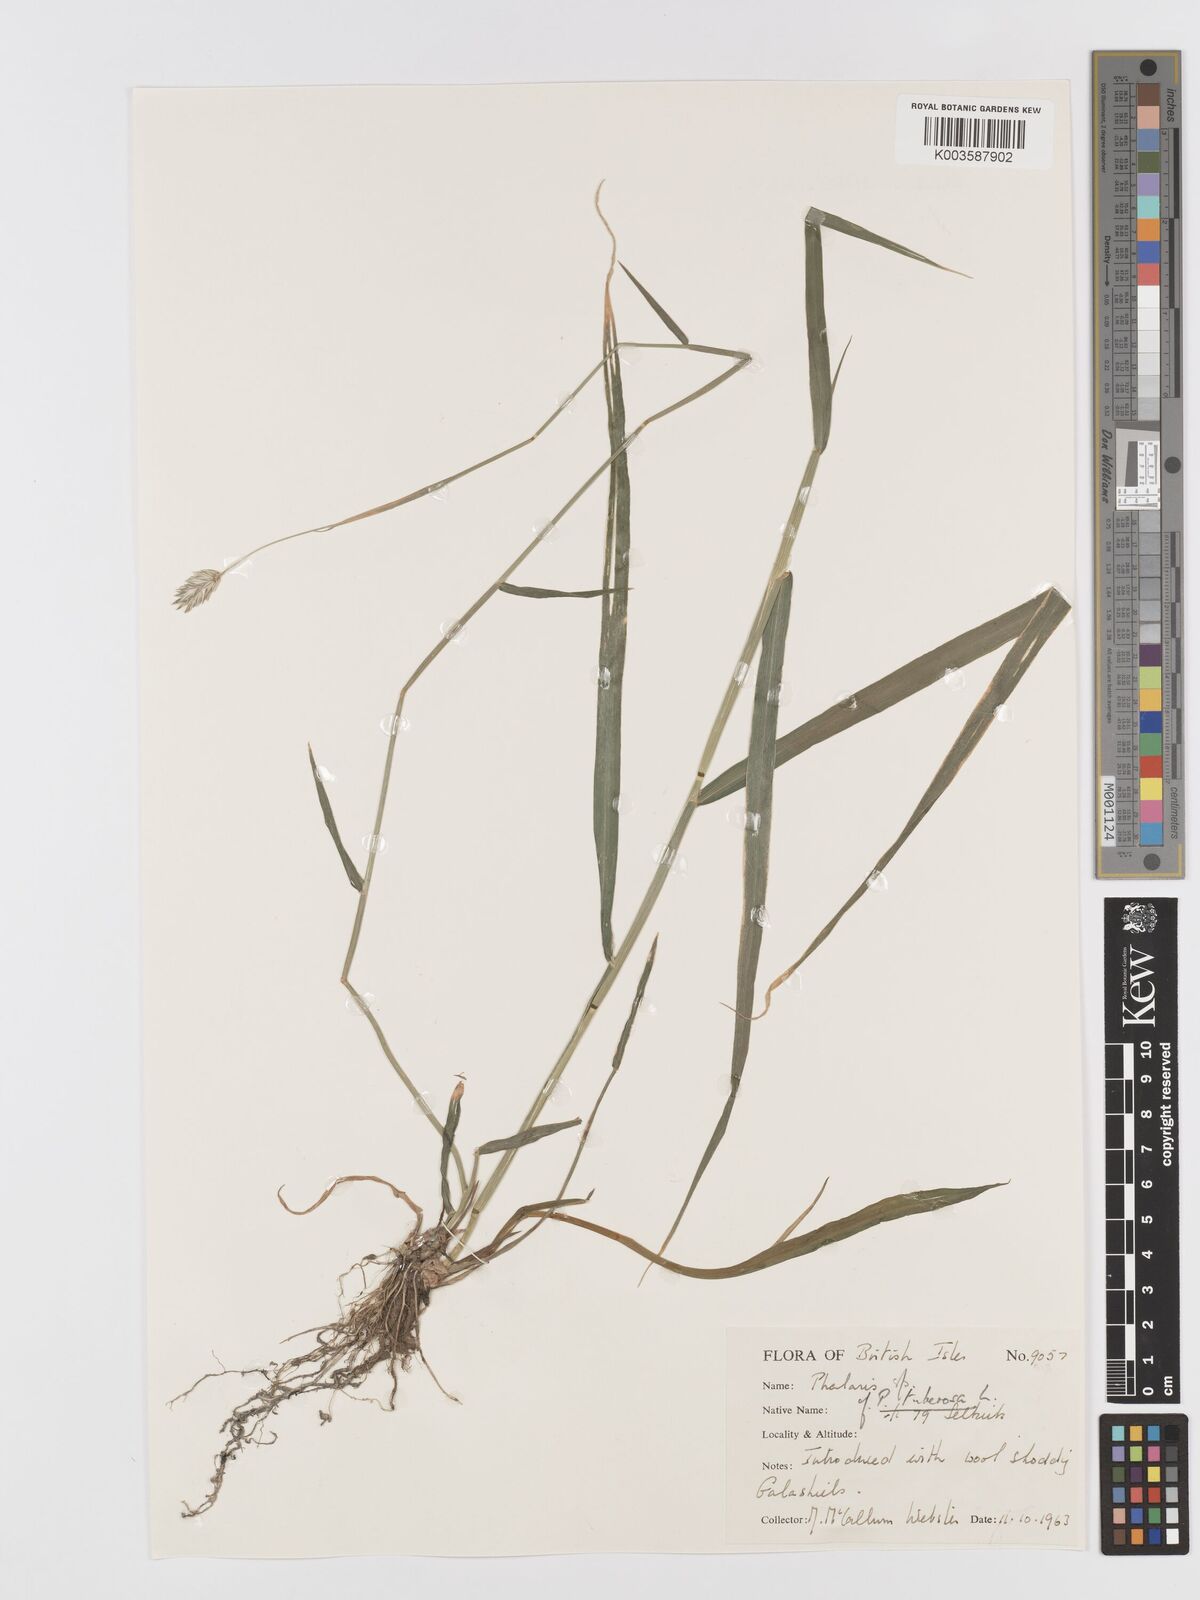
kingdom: Plantae
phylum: Tracheophyta
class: Liliopsida
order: Poales
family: Poaceae
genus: Phalaris
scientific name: Phalaris
